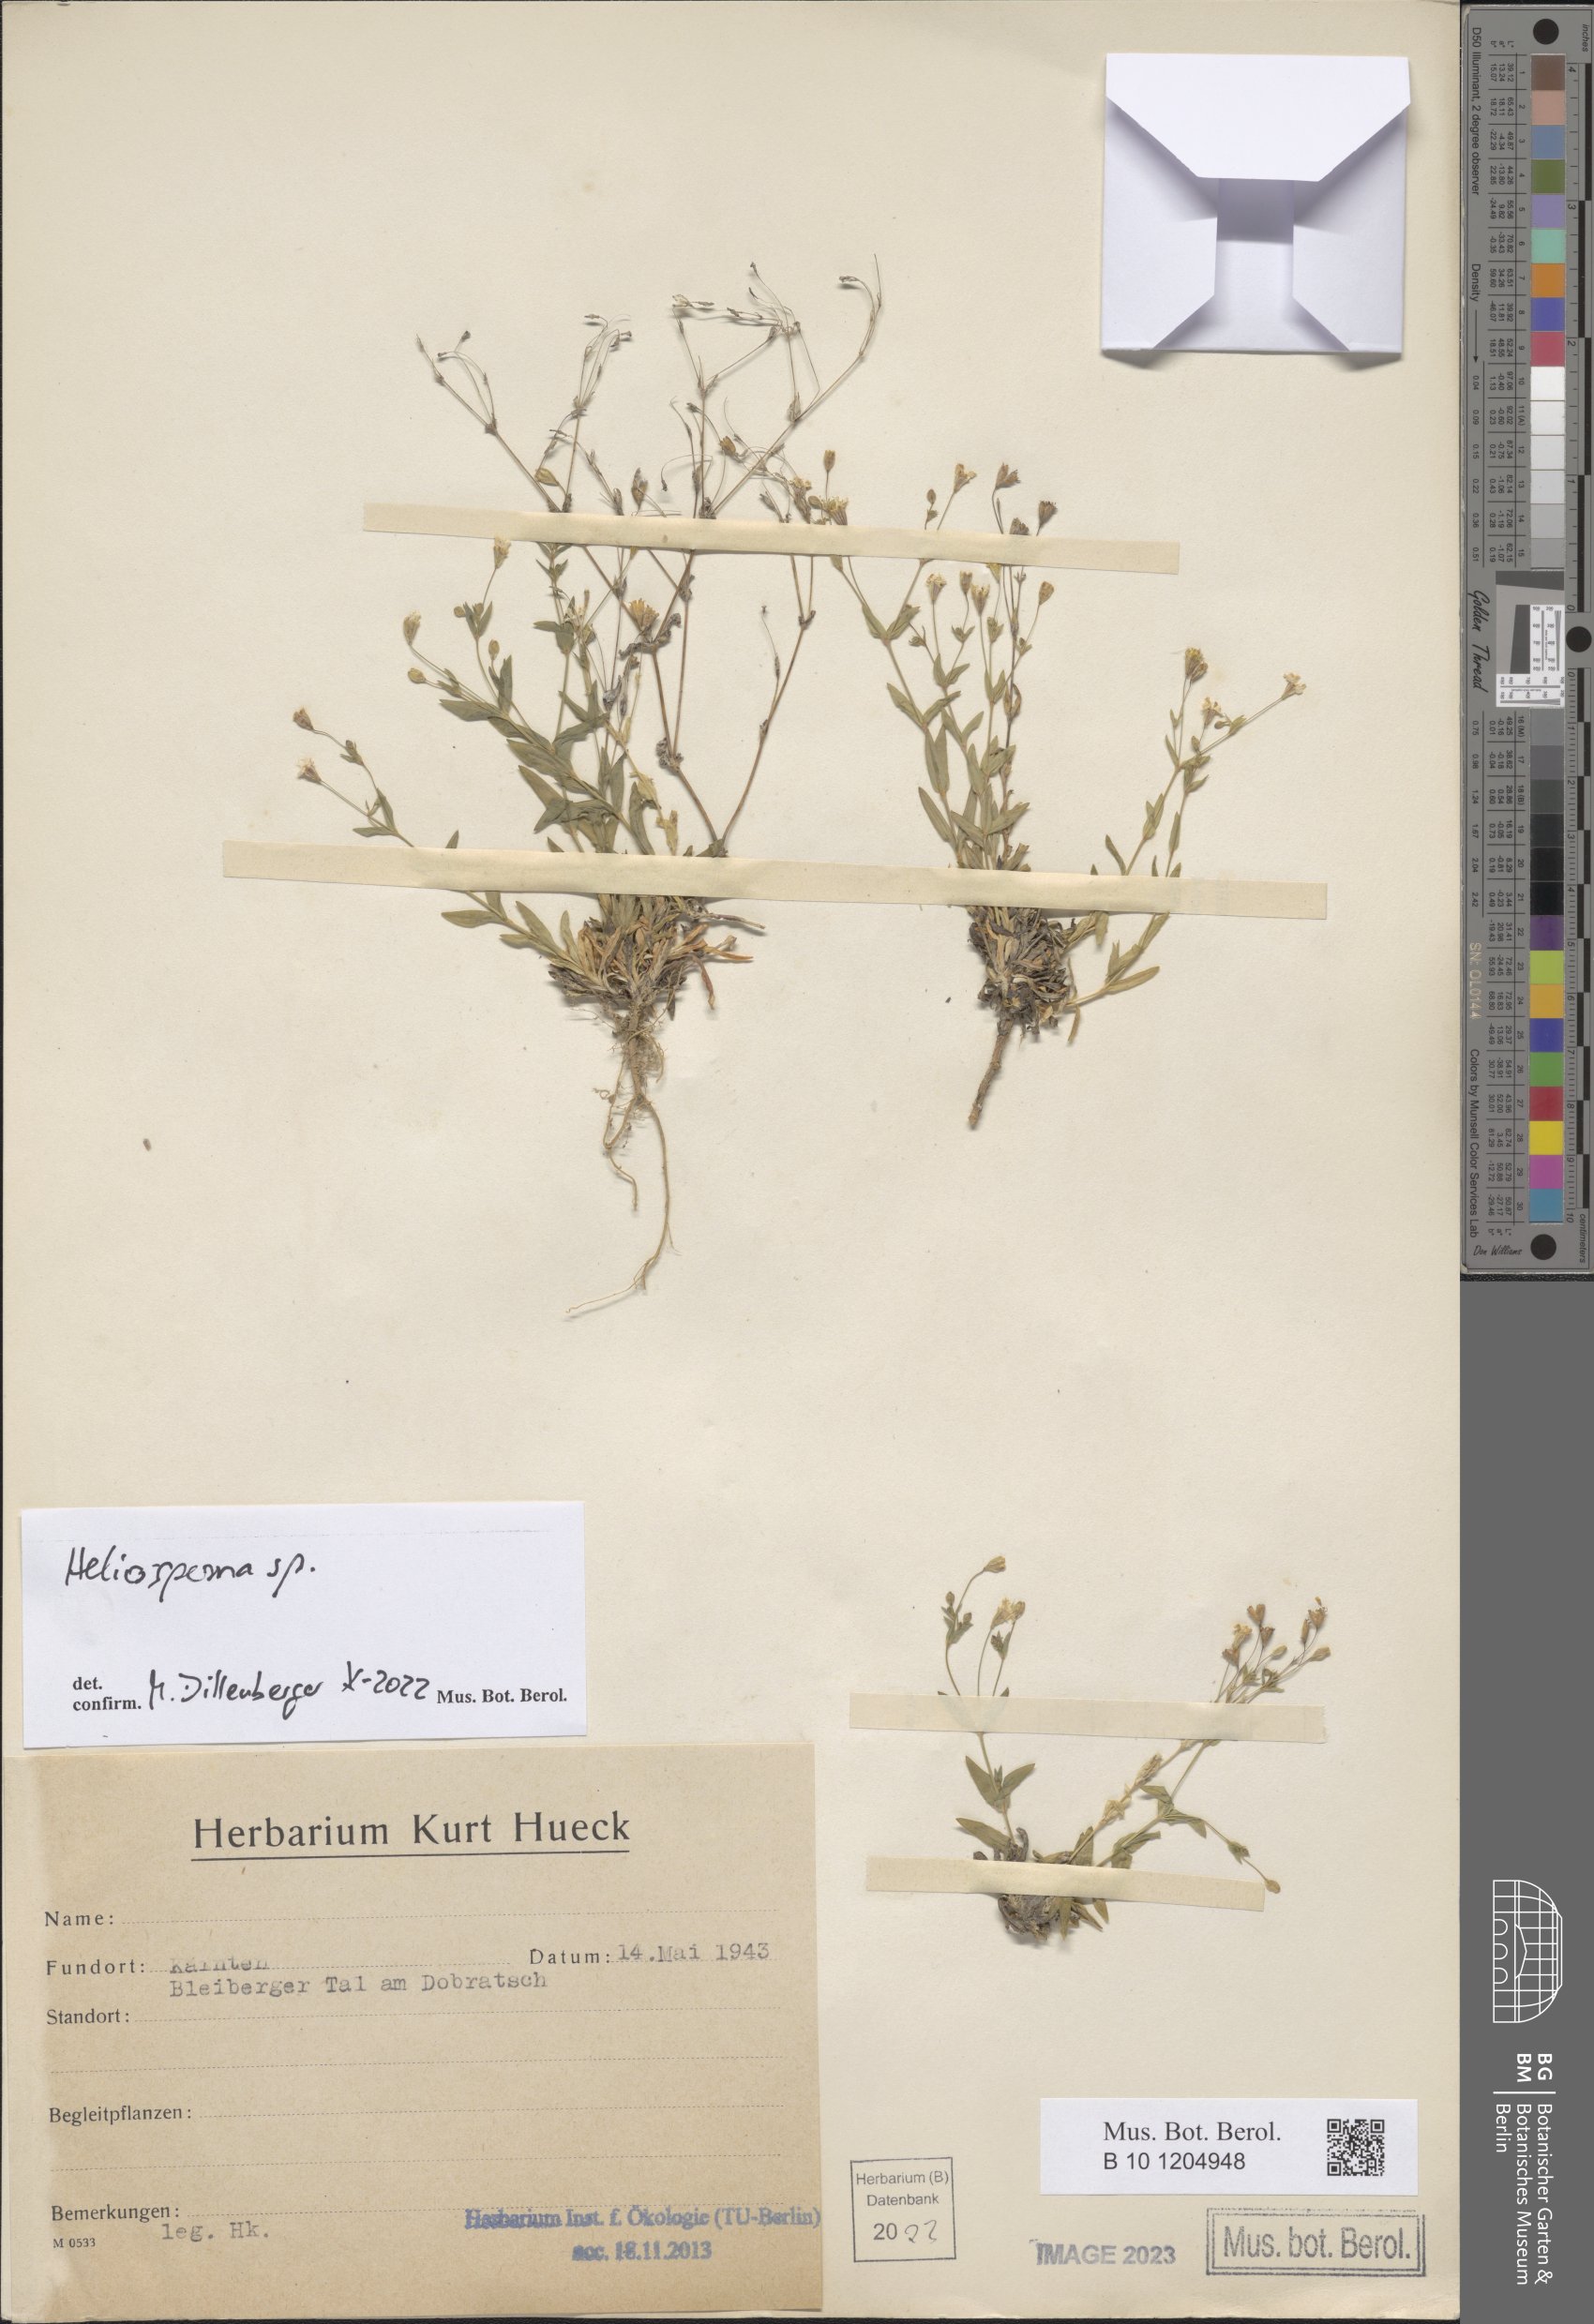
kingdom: Plantae
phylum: Tracheophyta
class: Magnoliopsida
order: Caryophyllales
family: Caryophyllaceae
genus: Heliosperma
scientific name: Heliosperma
